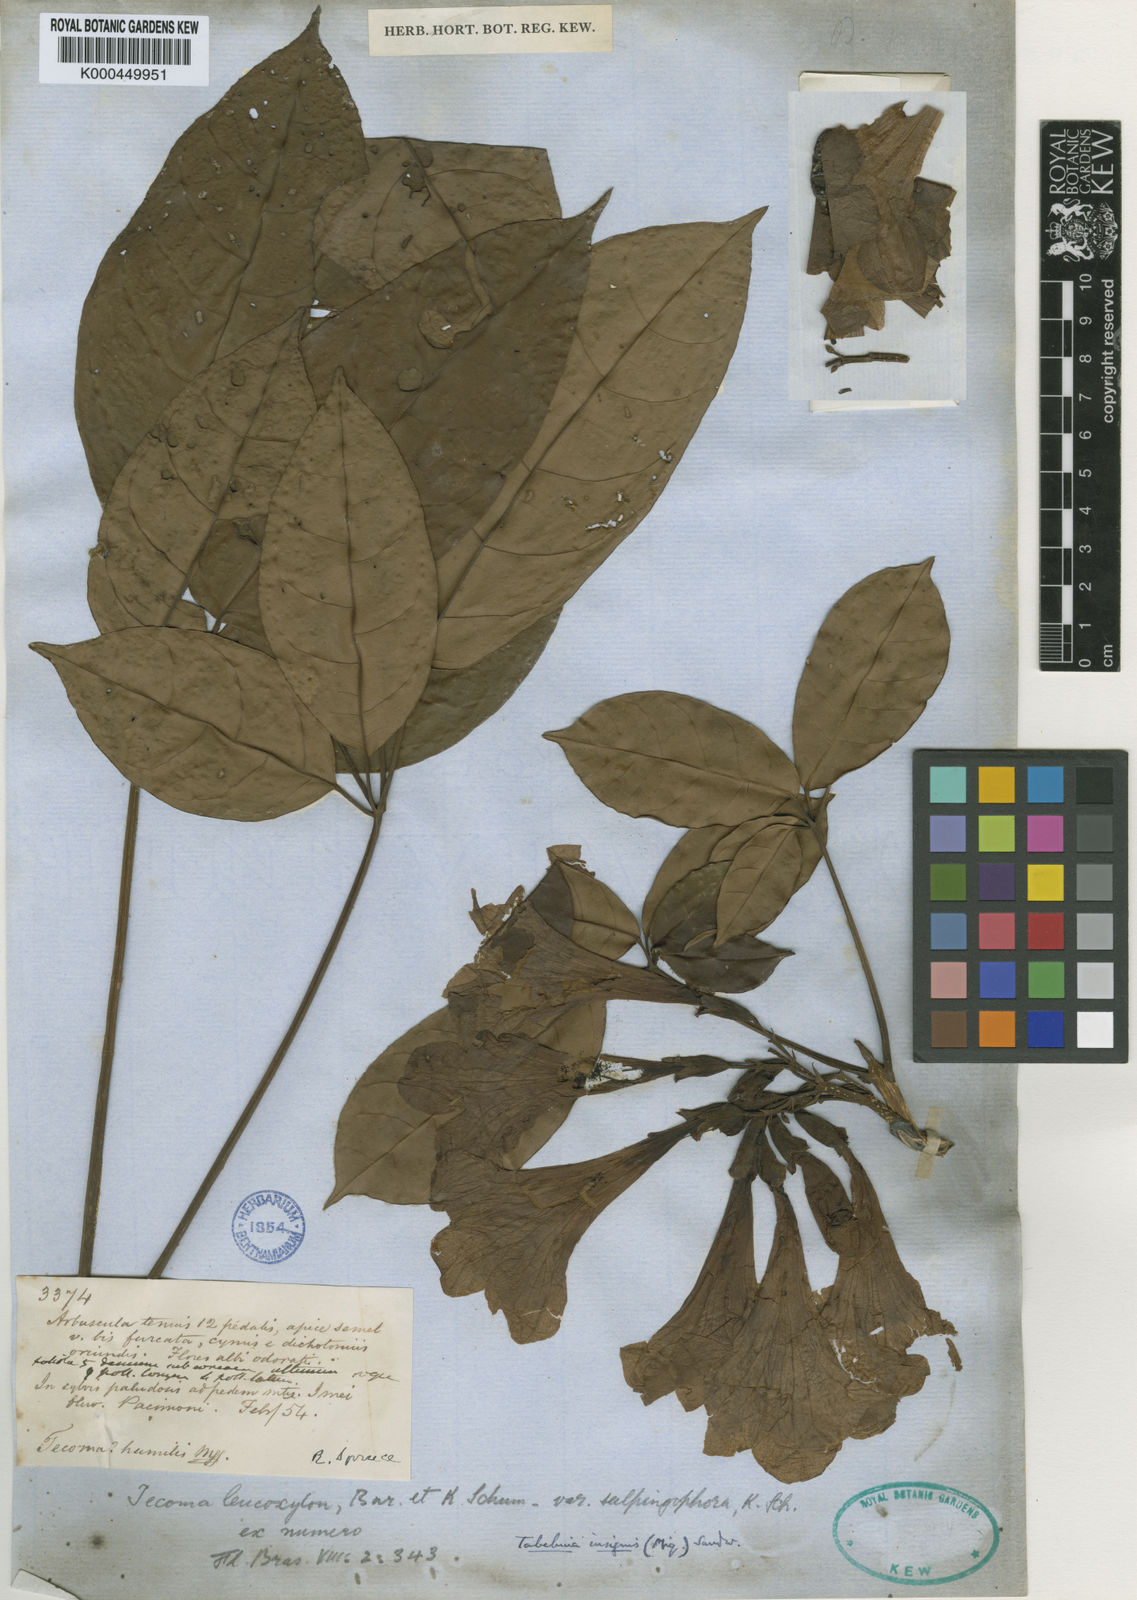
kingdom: Plantae
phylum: Tracheophyta
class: Magnoliopsida
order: Lamiales
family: Bignoniaceae
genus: Tabebuia
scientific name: Tabebuia insignis
